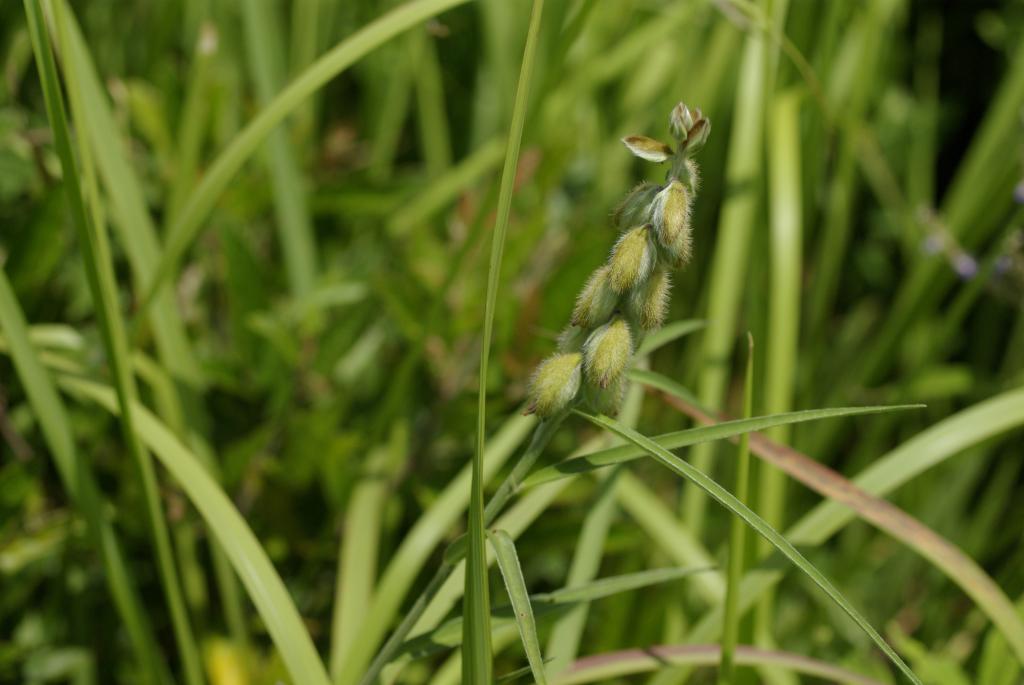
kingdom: Plantae
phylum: Tracheophyta
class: Magnoliopsida
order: Fabales
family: Fabaceae
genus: Crotalaria
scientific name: Crotalaria sessiliflora
